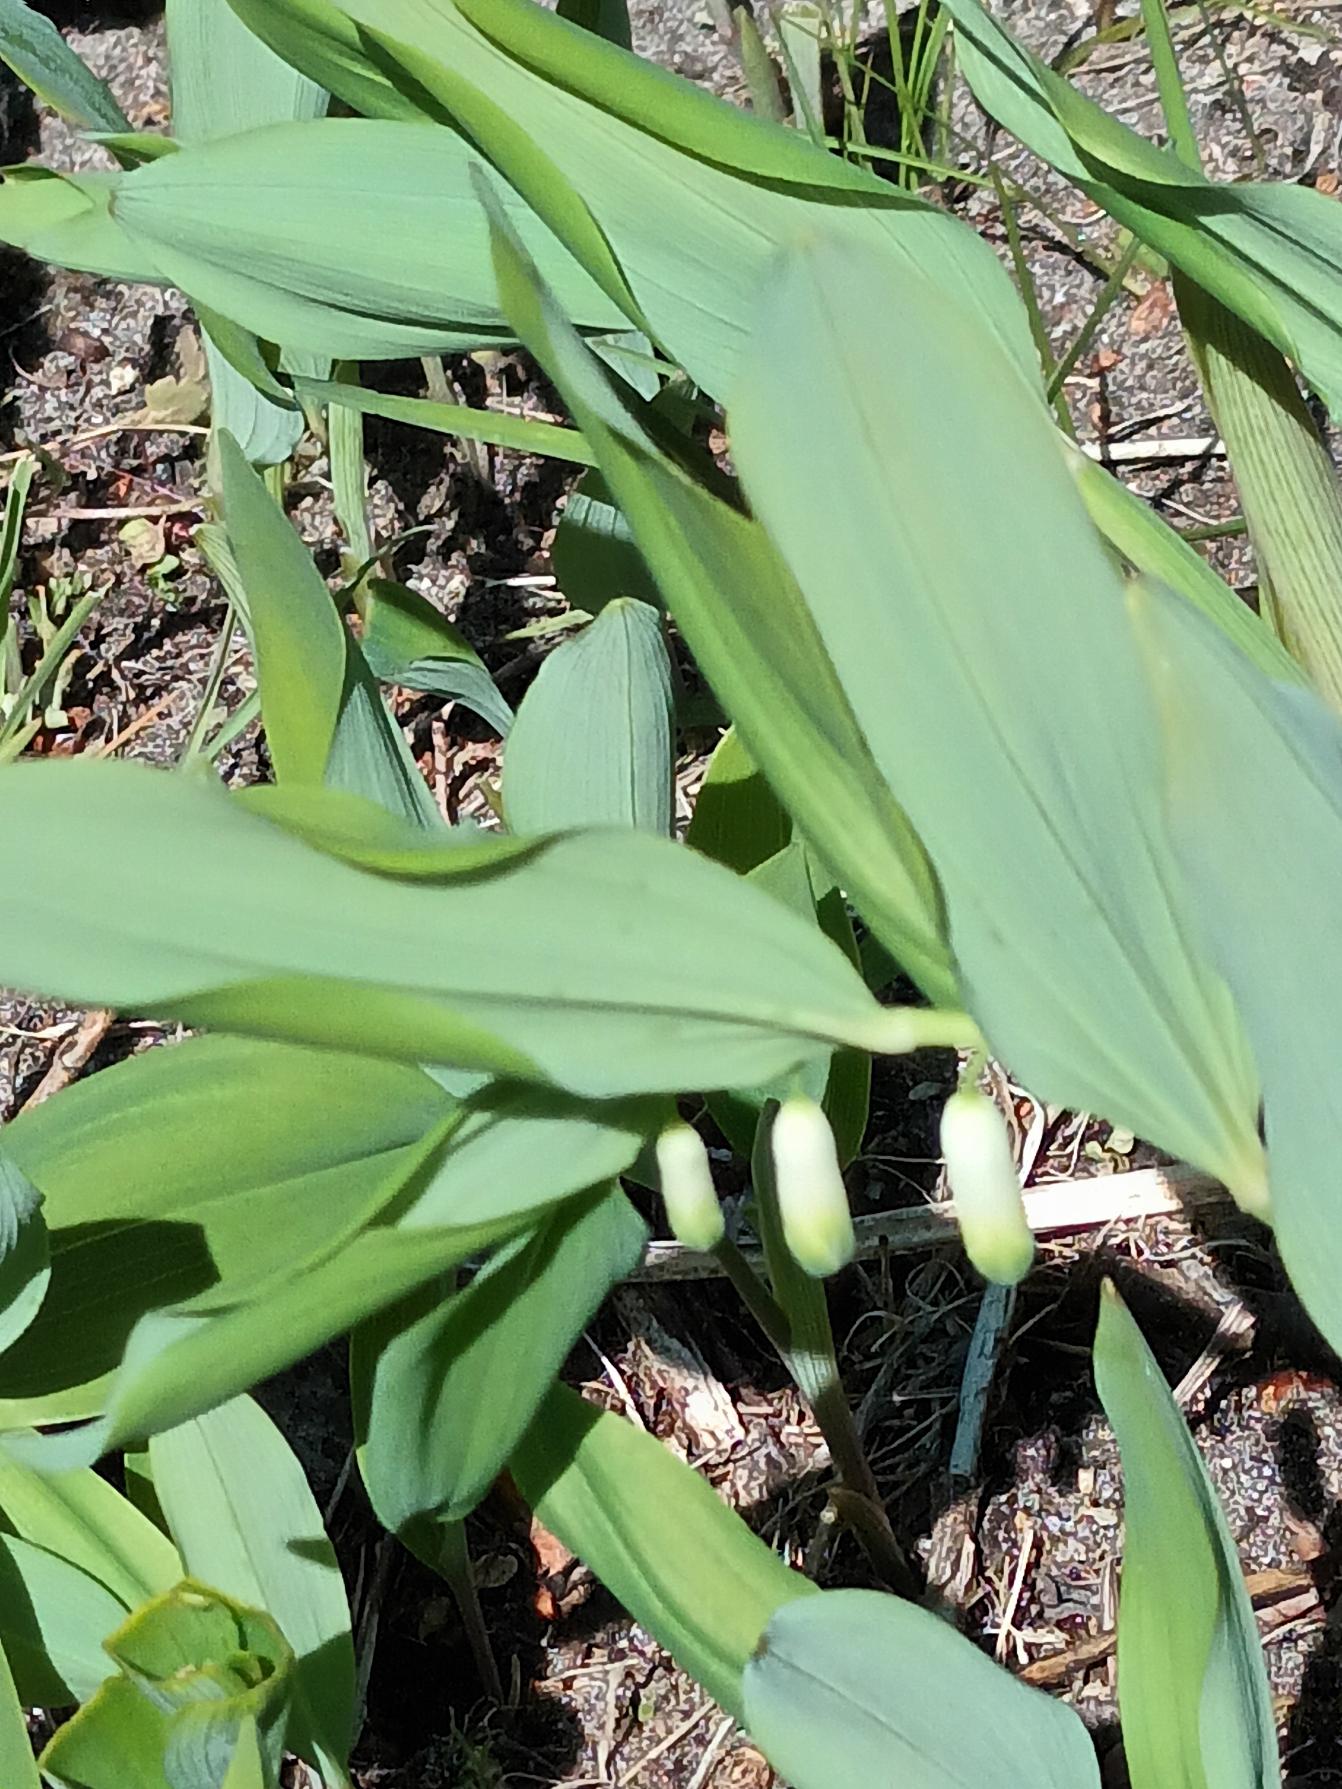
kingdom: Plantae
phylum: Tracheophyta
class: Liliopsida
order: Asparagales
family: Asparagaceae
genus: Polygonatum
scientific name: Polygonatum odoratum
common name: Kantet konval
